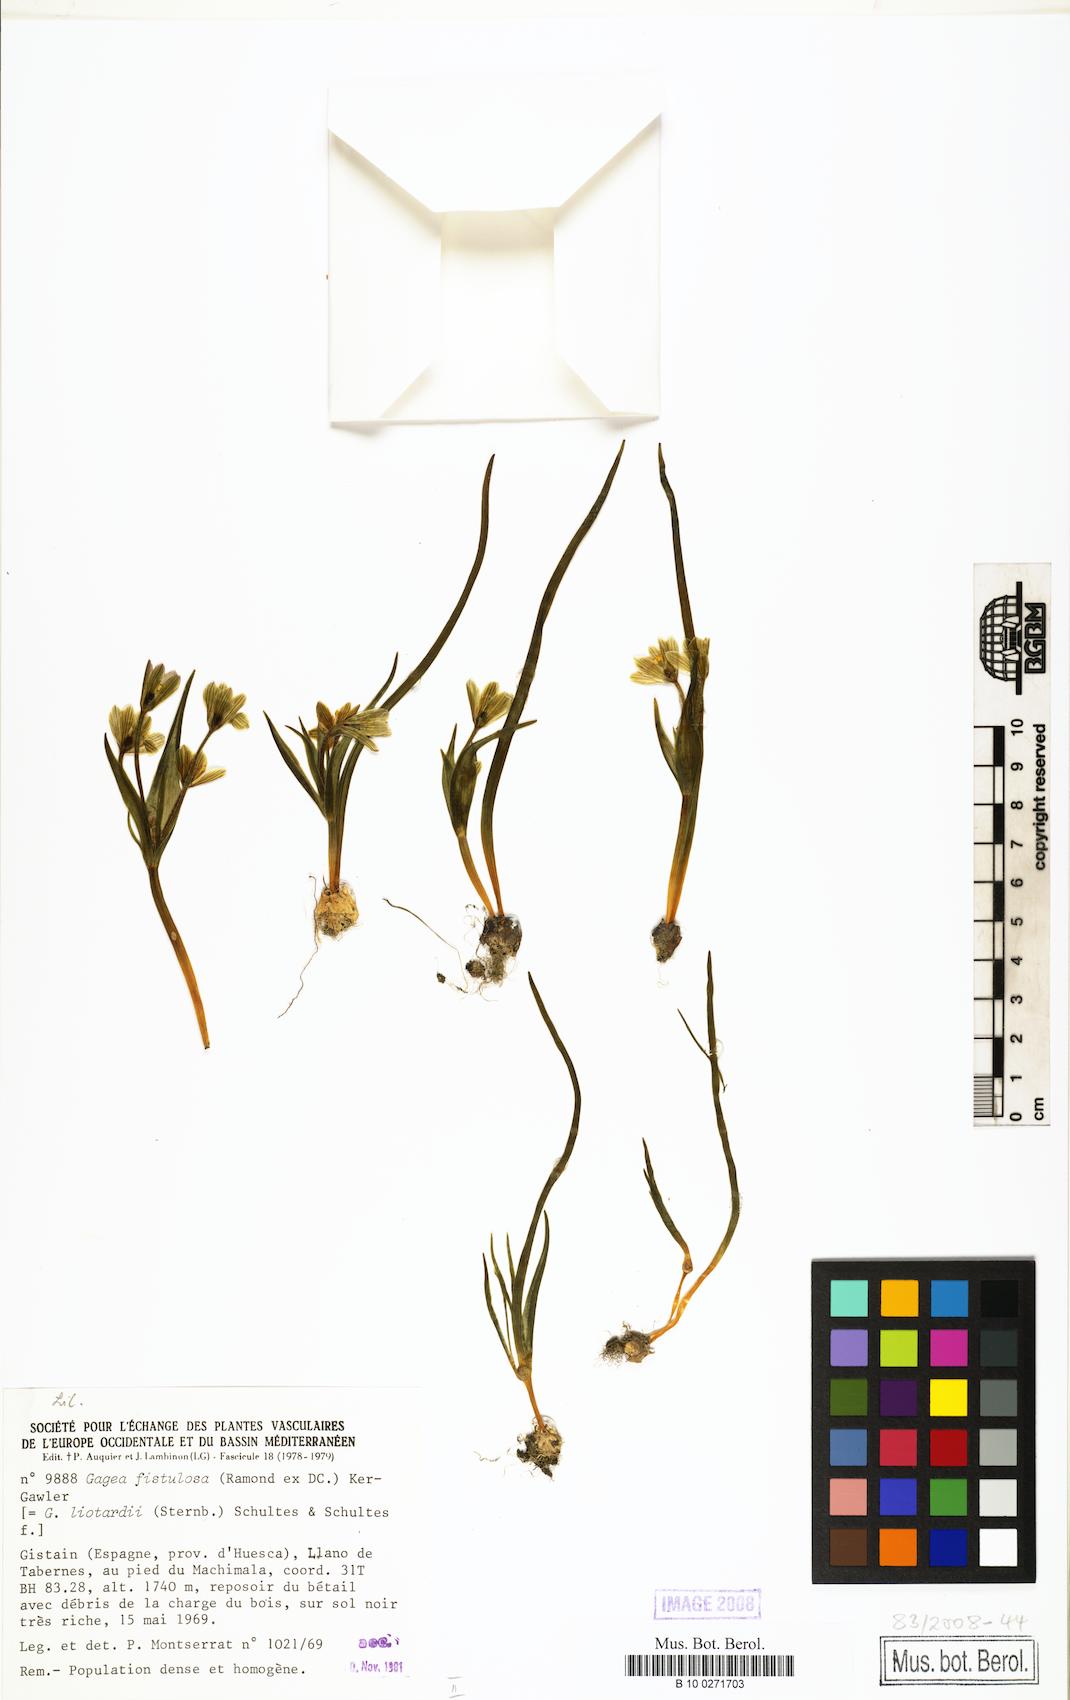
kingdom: Plantae
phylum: Tracheophyta
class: Liliopsida
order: Liliales
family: Liliaceae
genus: Gagea
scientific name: Gagea bohemica
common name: Early star-of-bethlehem
